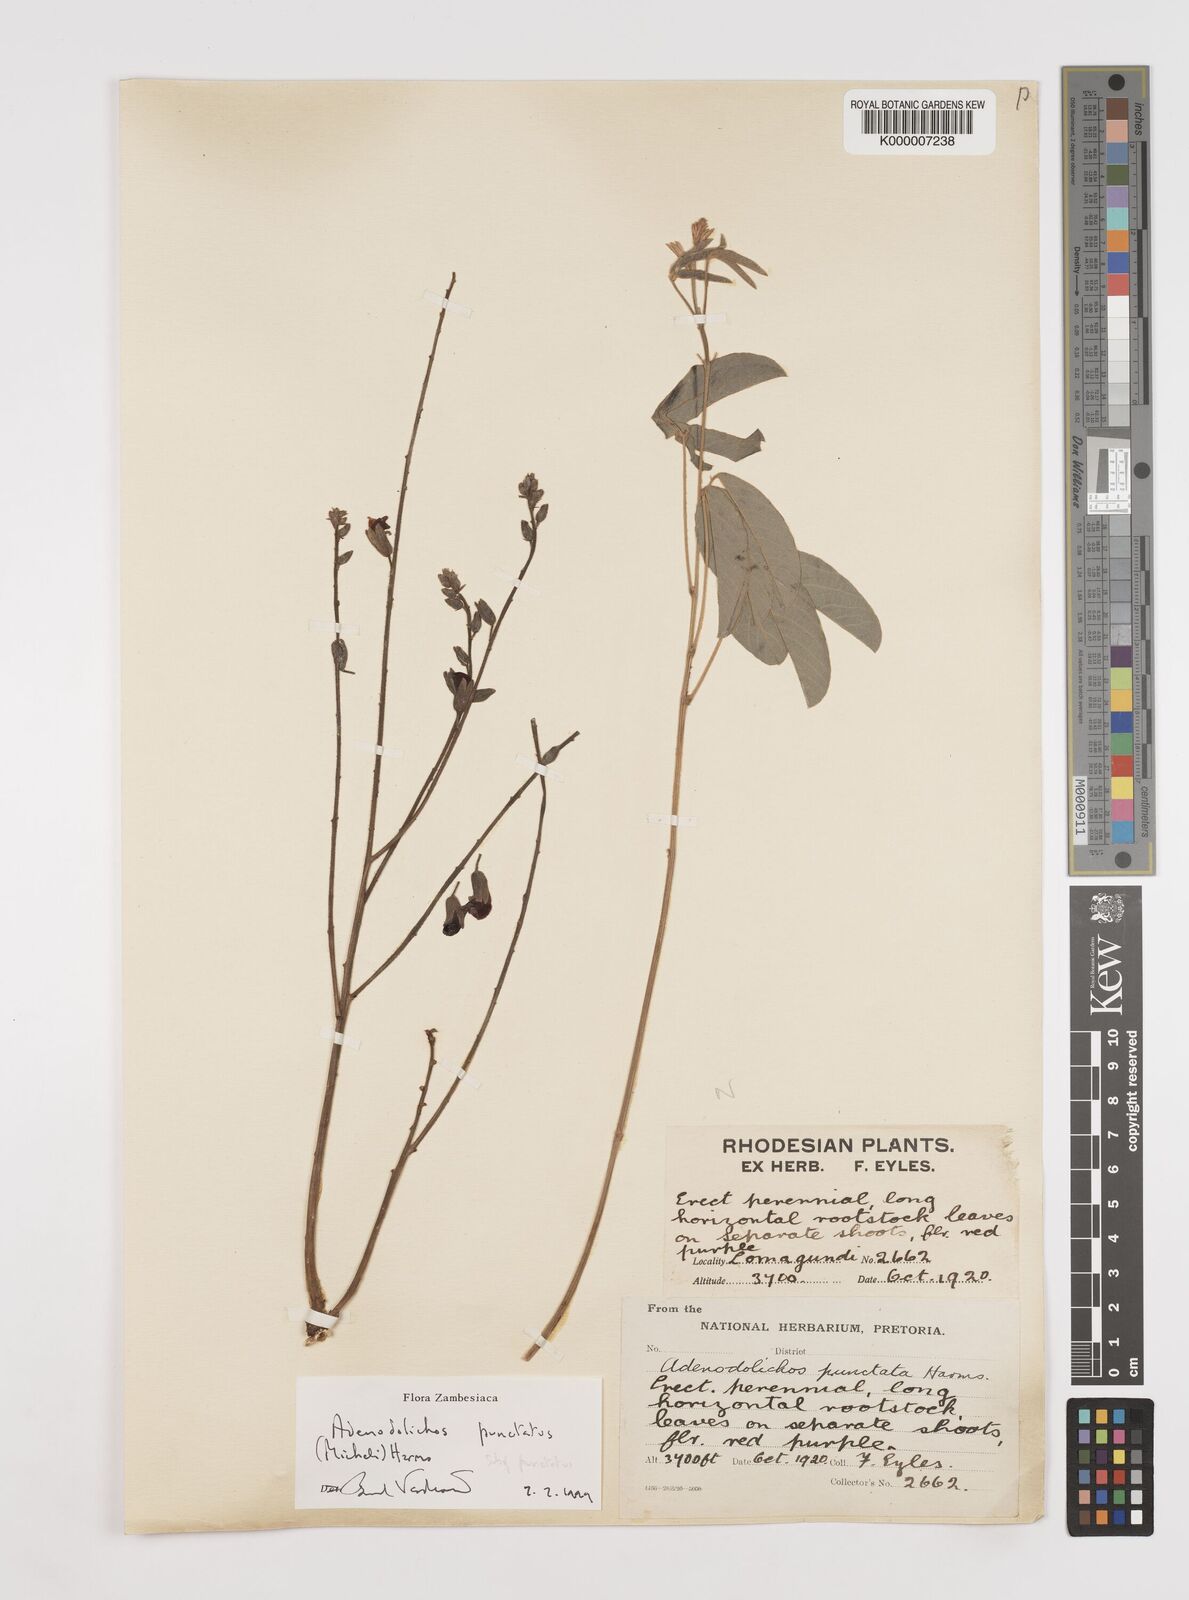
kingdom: Plantae
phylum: Tracheophyta
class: Magnoliopsida
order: Fabales
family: Fabaceae
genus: Adenodolichos
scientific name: Adenodolichos punctatus
